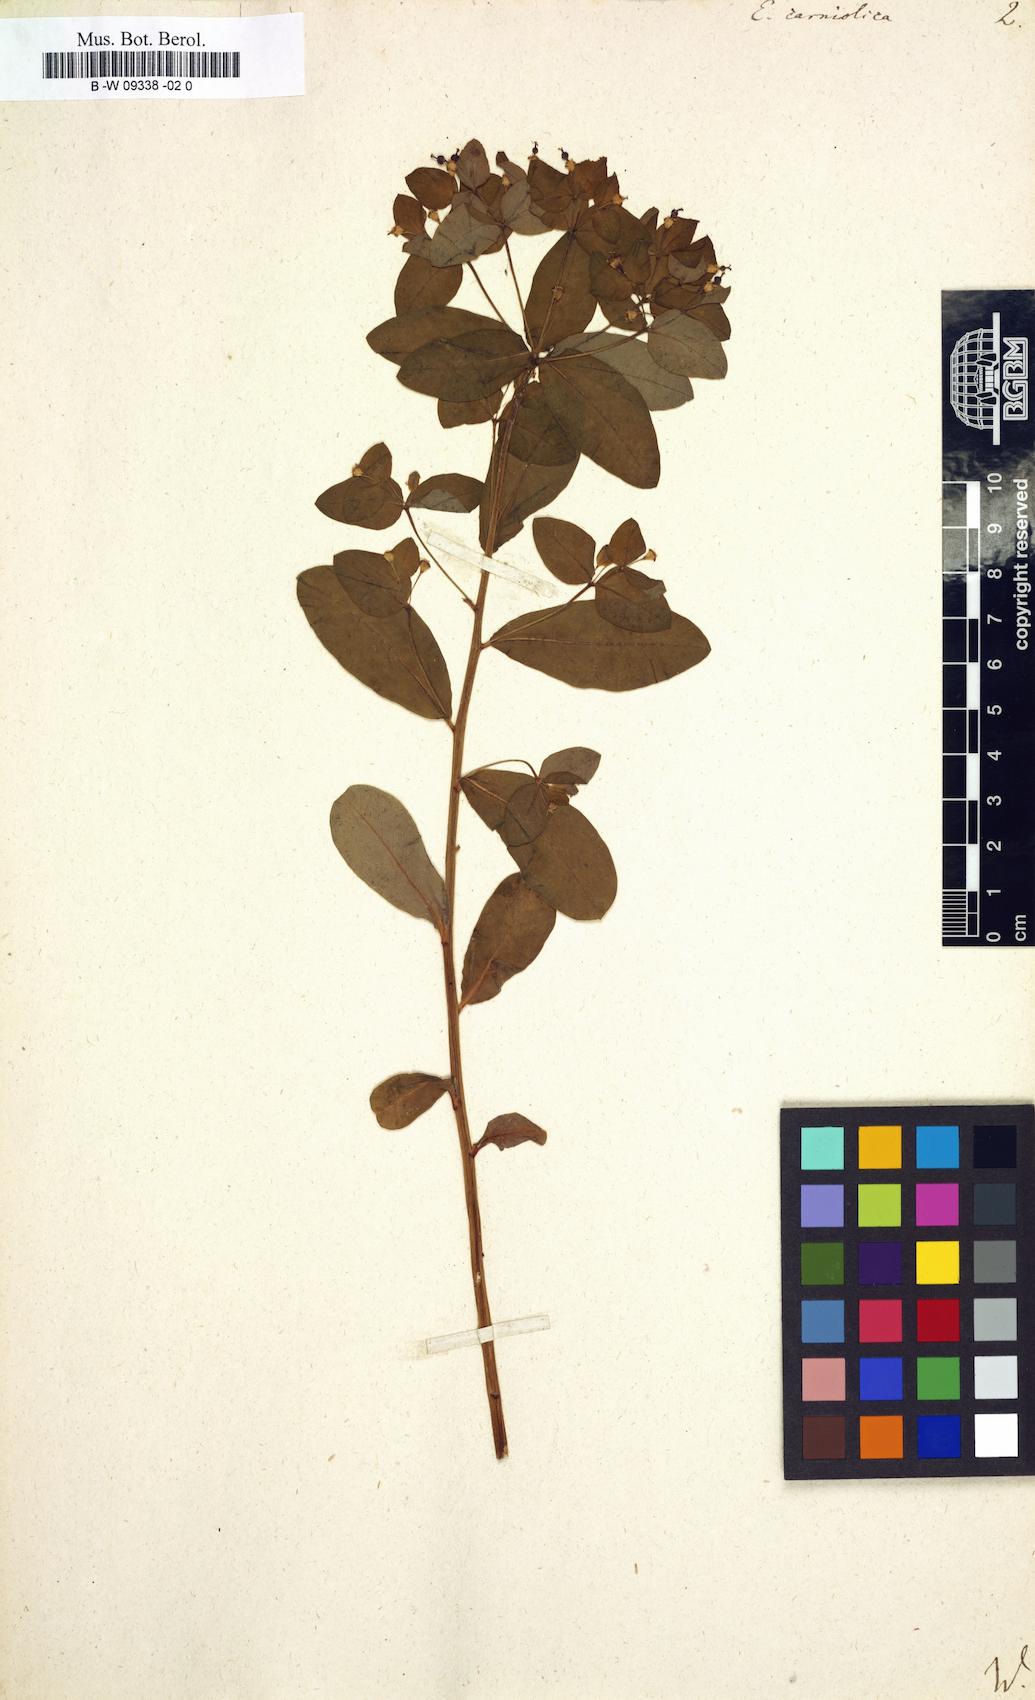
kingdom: Plantae
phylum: Tracheophyta
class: Magnoliopsida
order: Malpighiales
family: Euphorbiaceae
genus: Euphorbia
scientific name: Euphorbia carniolica
